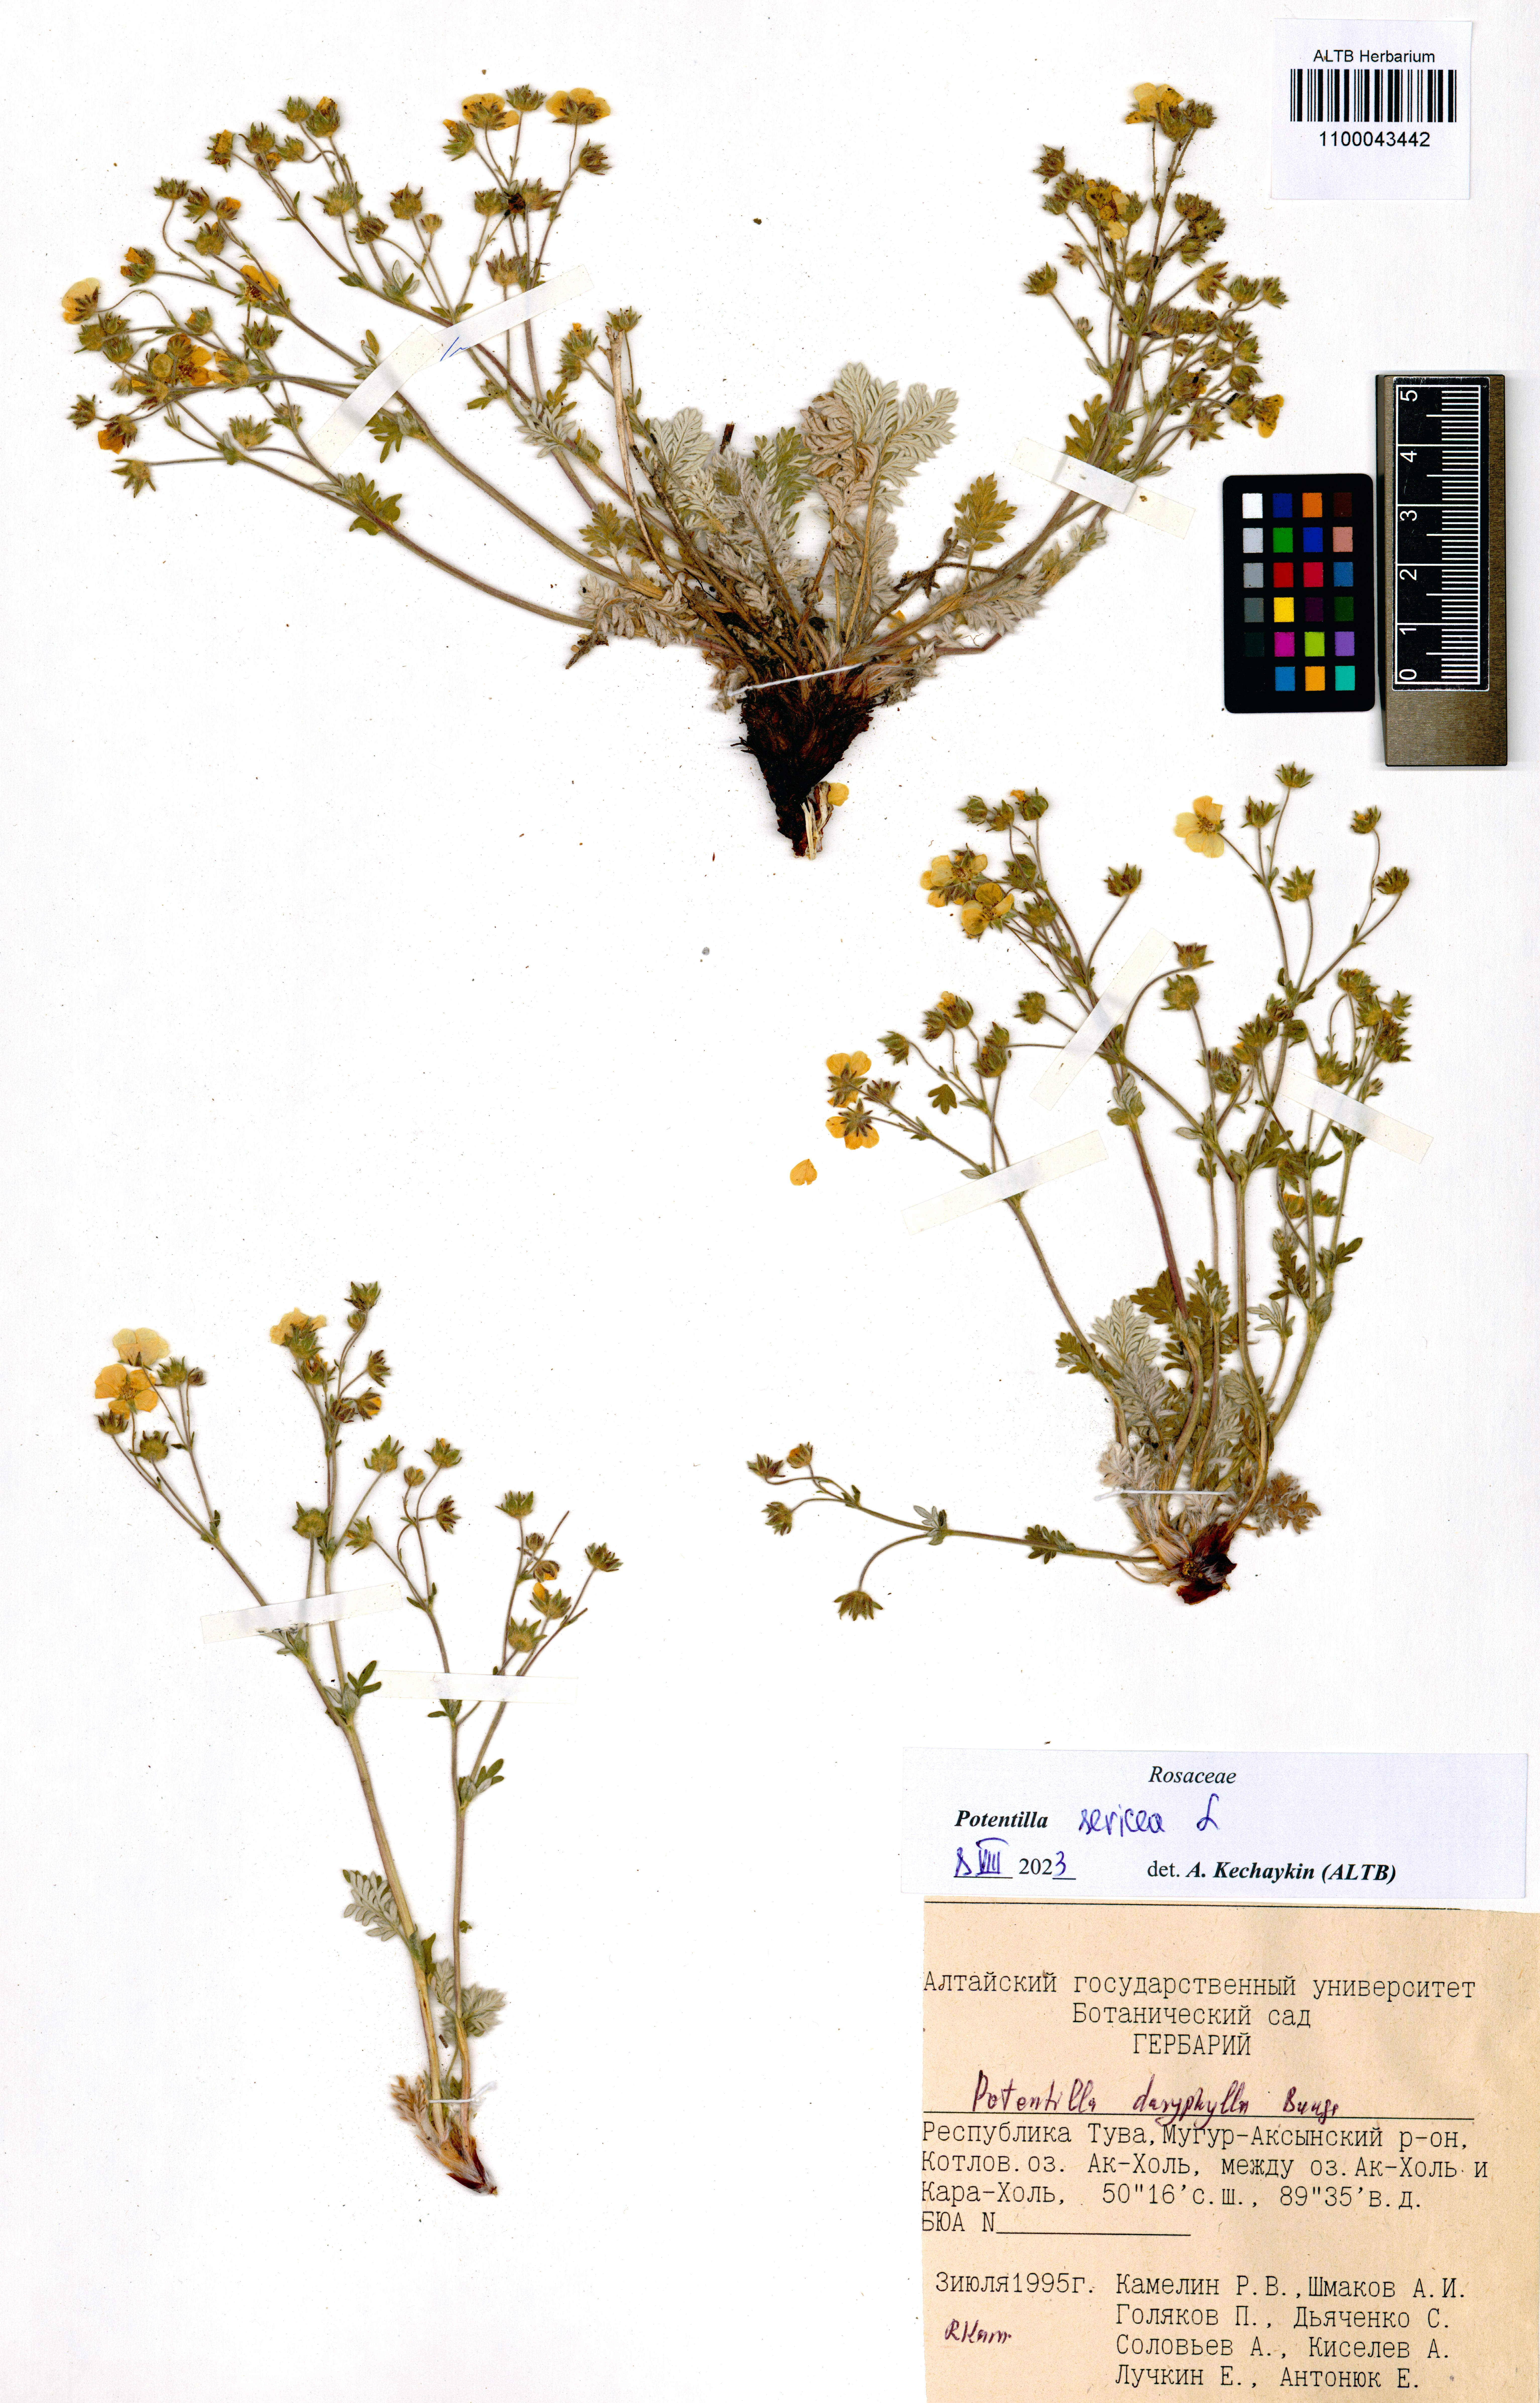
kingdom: Plantae
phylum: Tracheophyta
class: Magnoliopsida
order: Rosales
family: Rosaceae
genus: Potentilla
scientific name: Potentilla sericea
